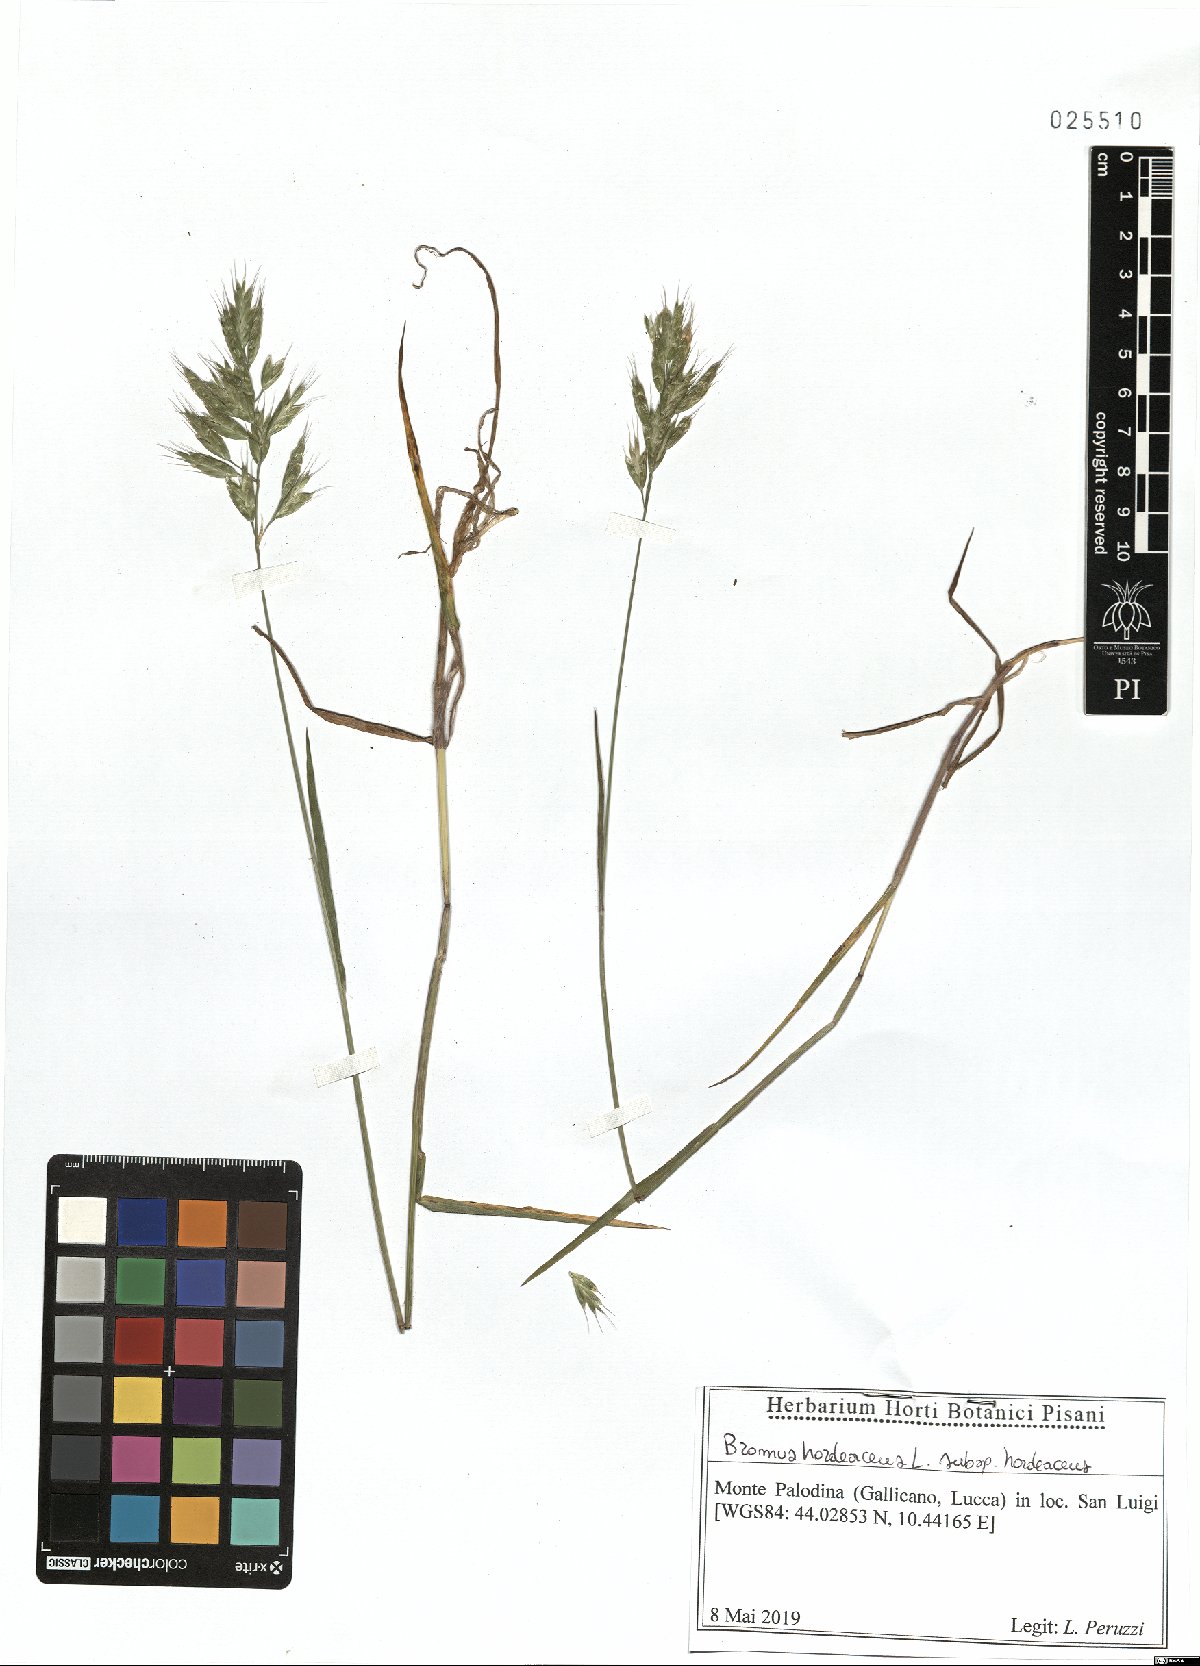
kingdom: Plantae
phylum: Tracheophyta
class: Liliopsida
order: Poales
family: Poaceae
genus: Bromus
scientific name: Bromus hordeaceus
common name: Soft brome
